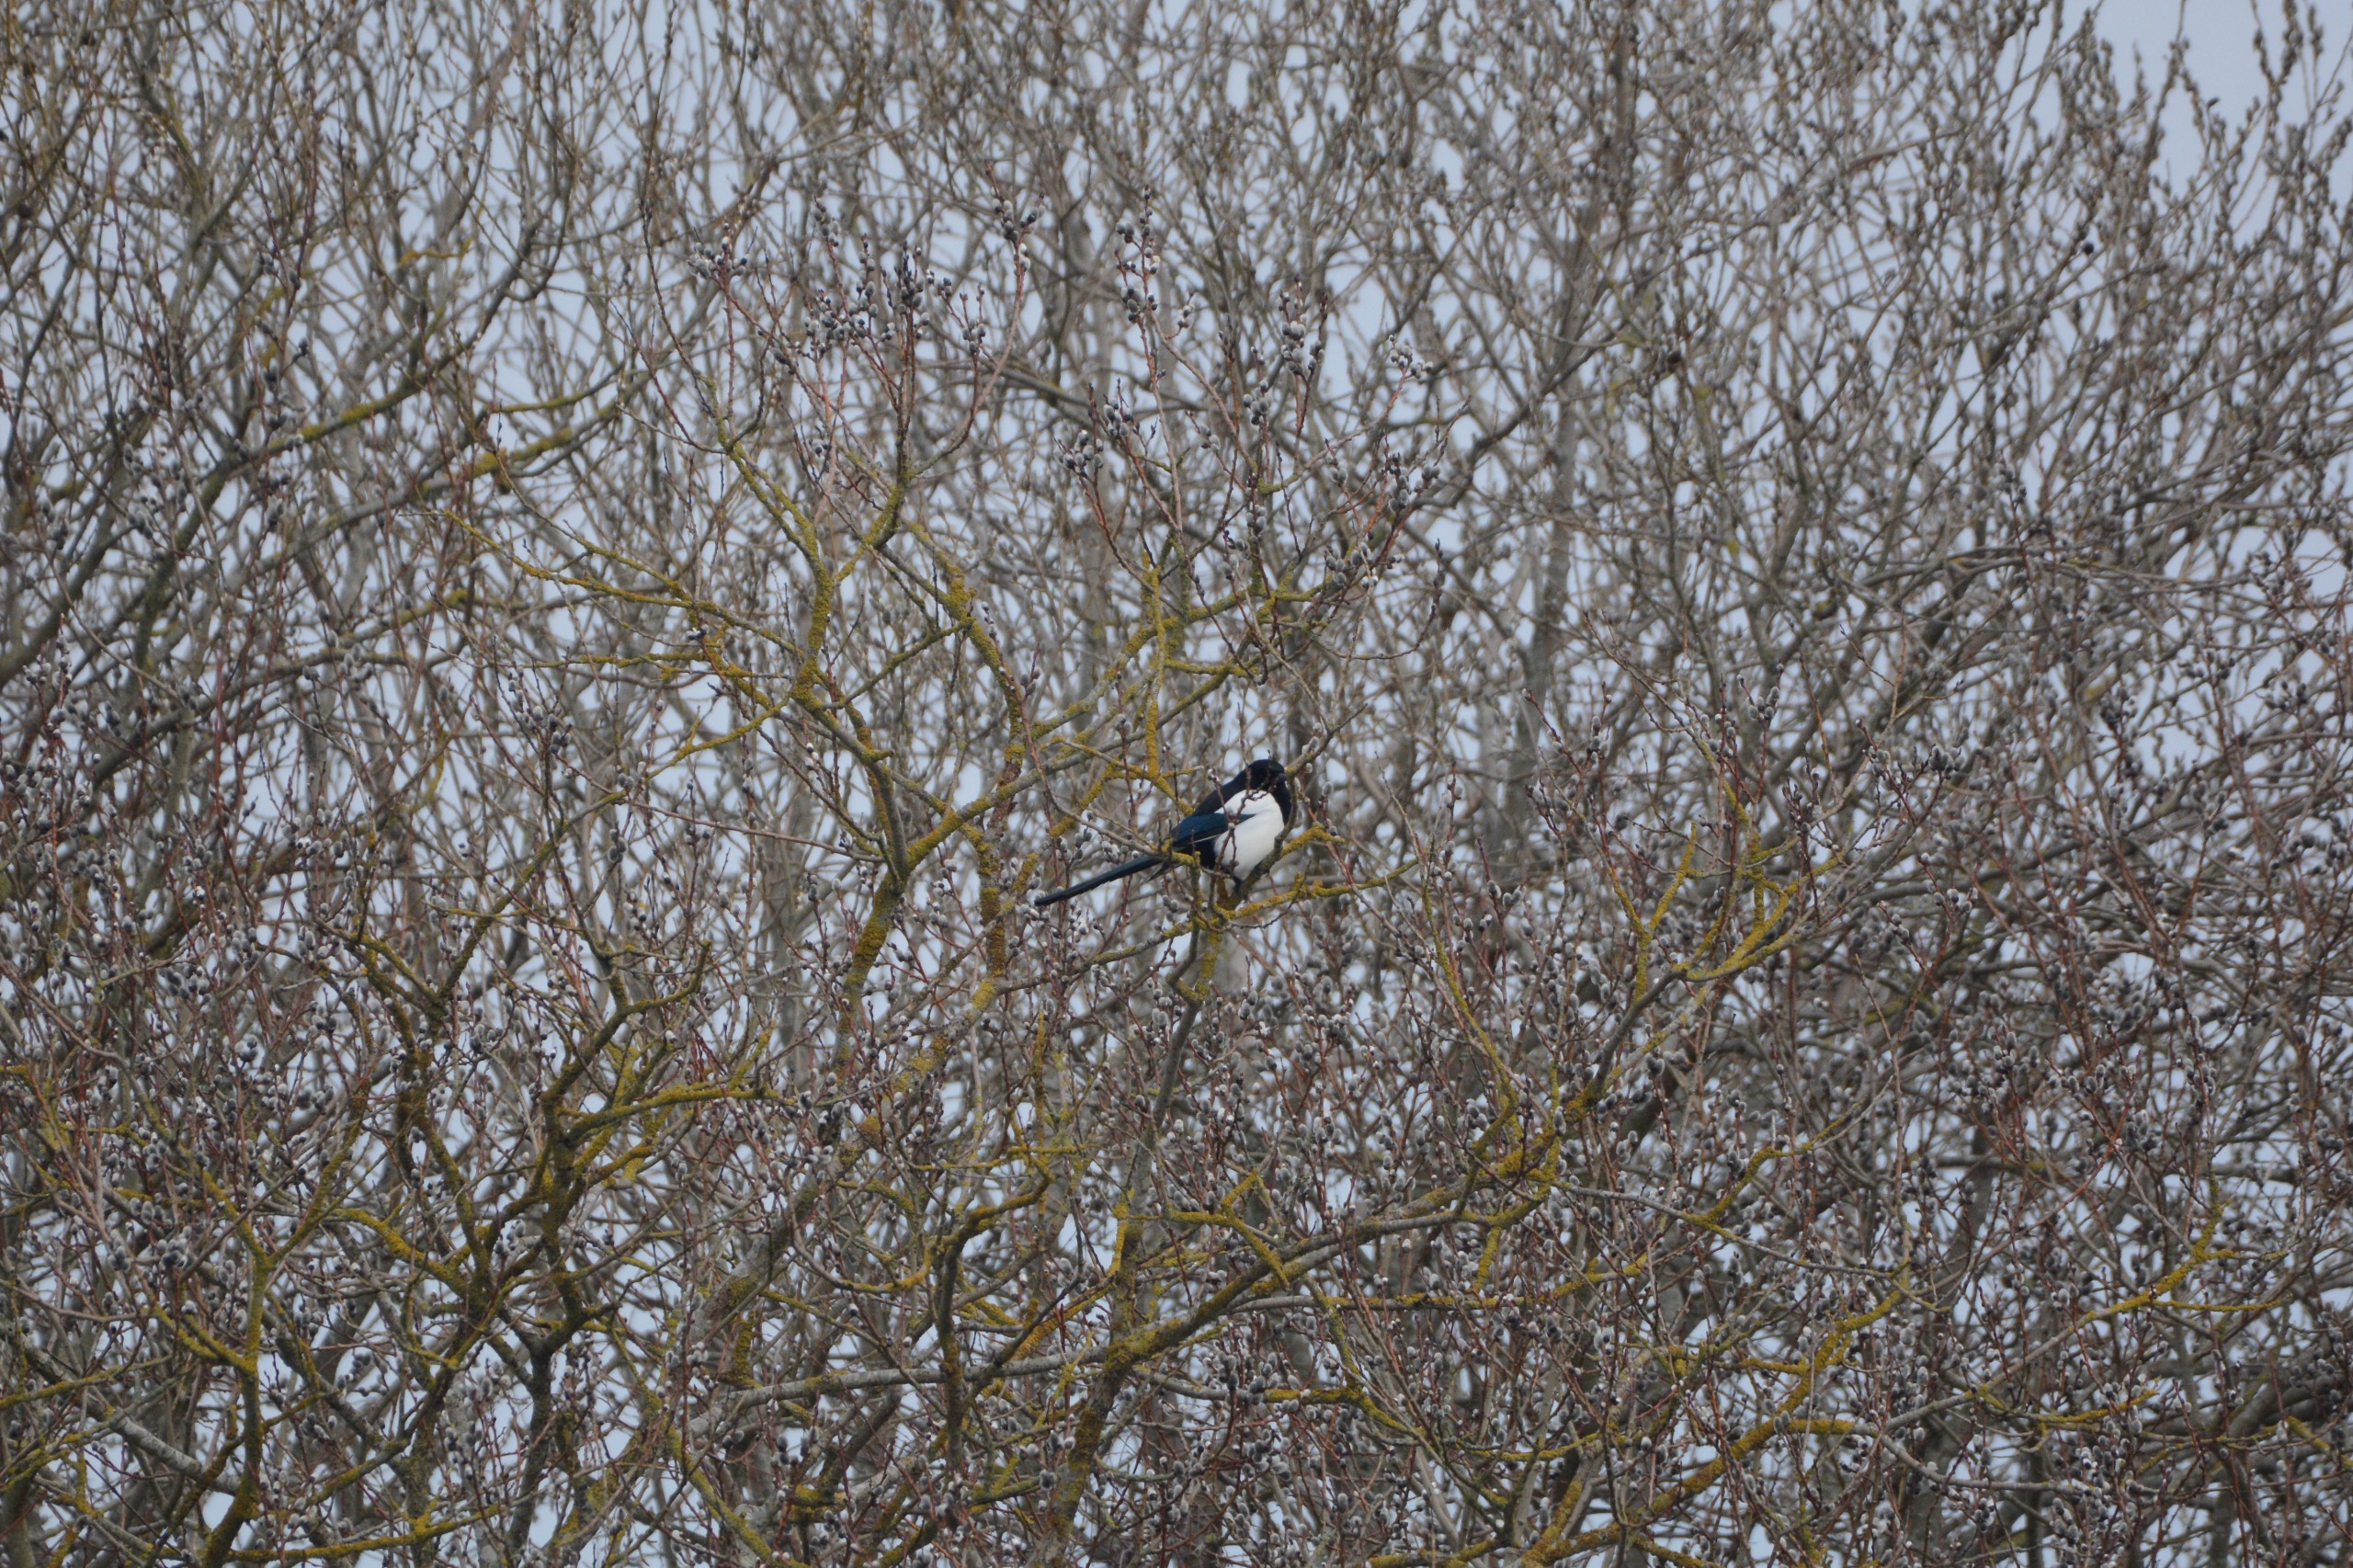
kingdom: Animalia
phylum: Chordata
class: Aves
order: Passeriformes
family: Corvidae
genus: Pica
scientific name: Pica pica
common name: Husskade
